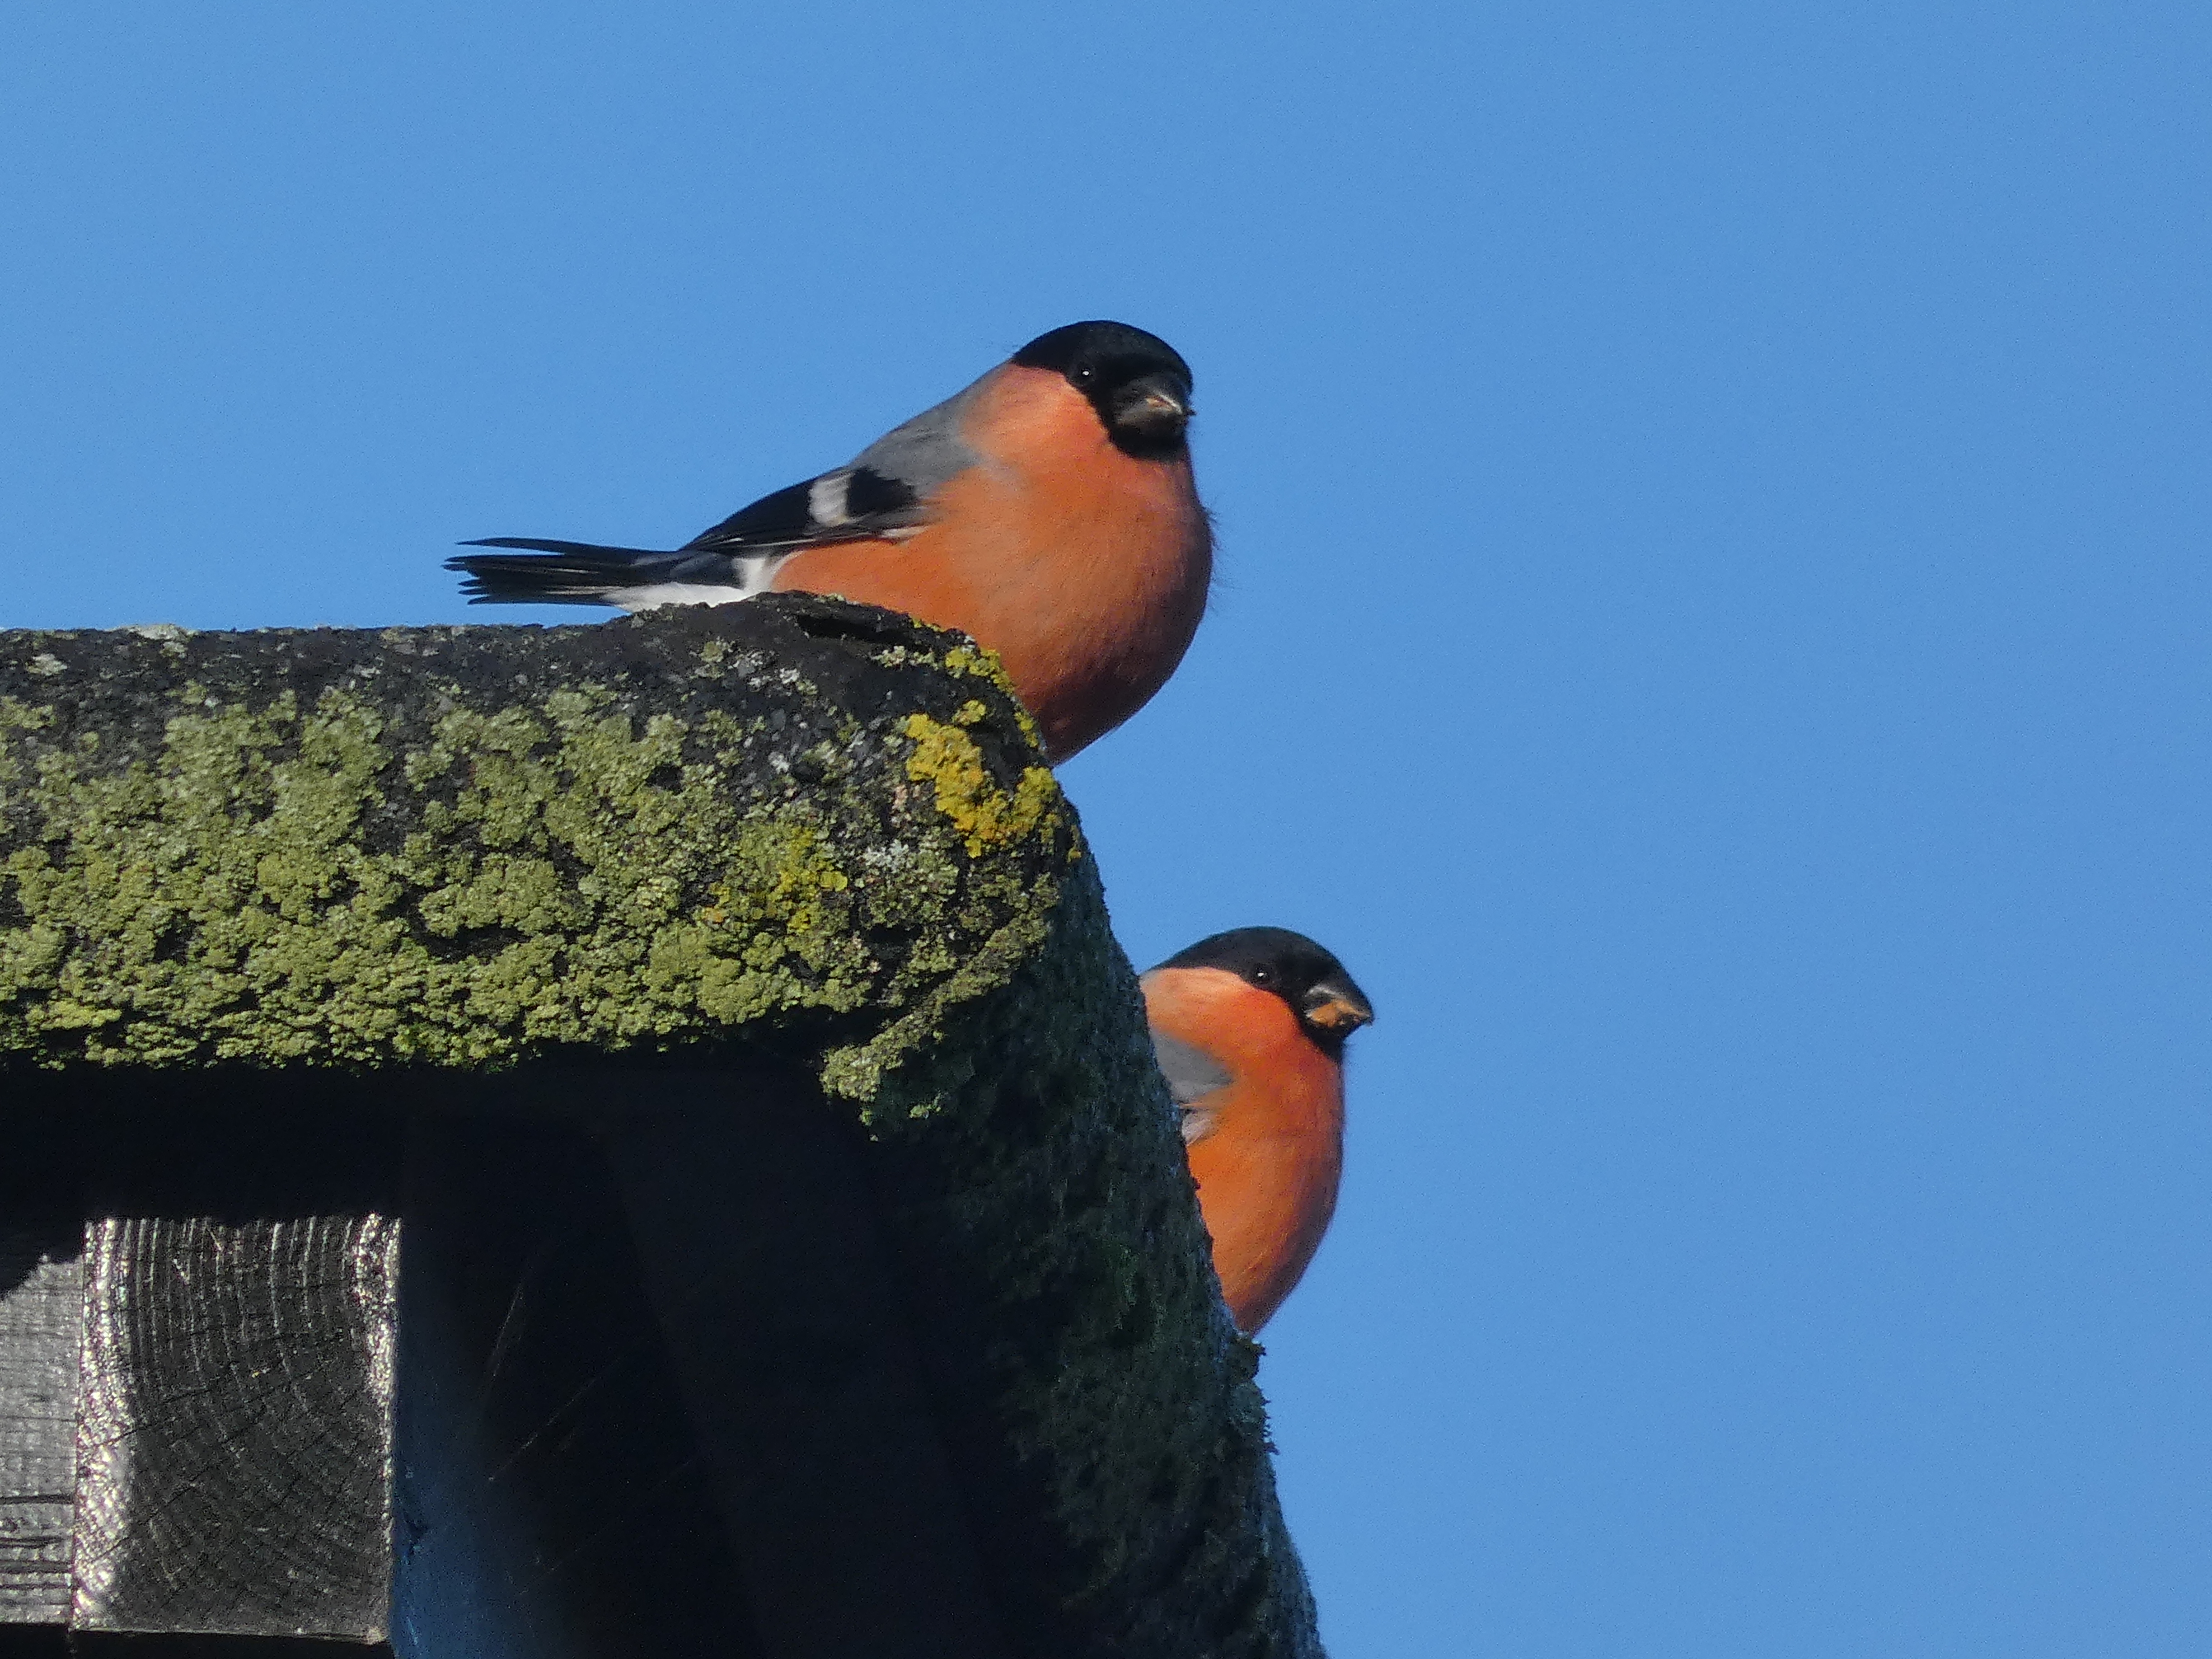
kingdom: Animalia
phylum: Chordata
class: Aves
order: Passeriformes
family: Fringillidae
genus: Pyrrhula
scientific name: Pyrrhula pyrrhula
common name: Dompap
